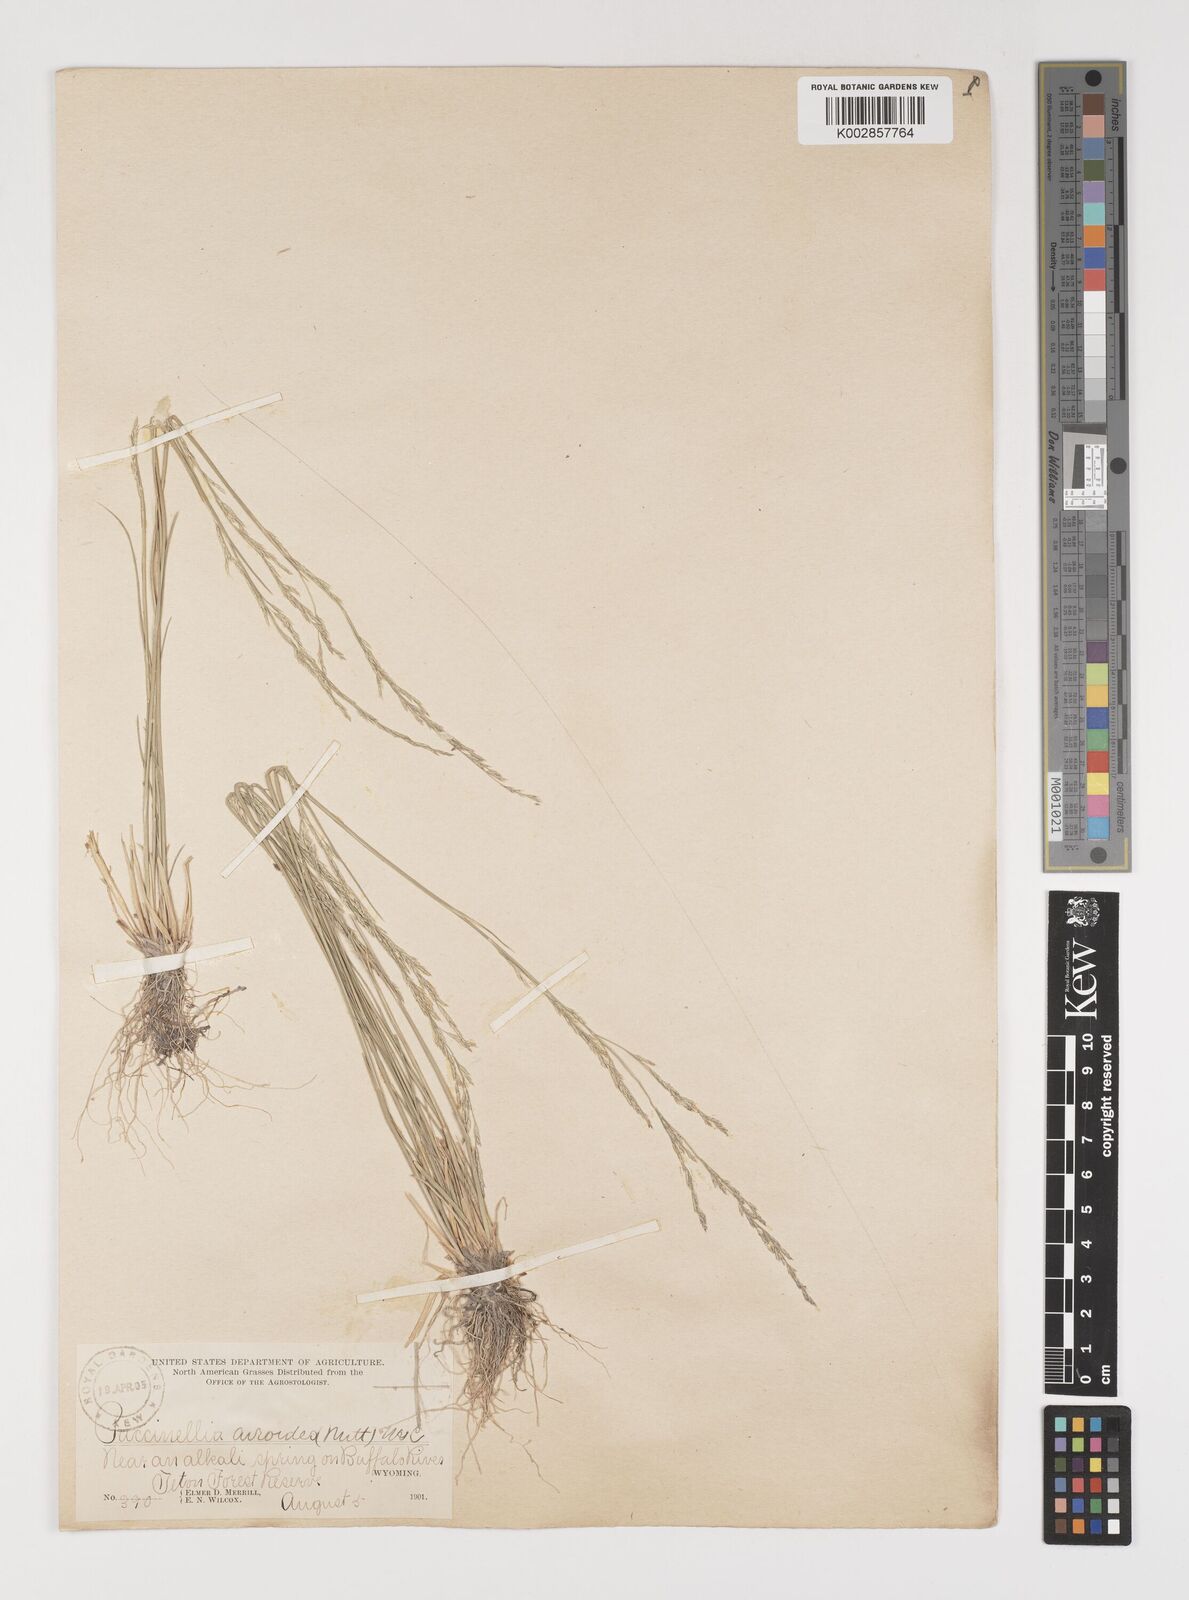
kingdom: Plantae
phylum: Tracheophyta
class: Liliopsida
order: Poales
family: Poaceae
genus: Puccinellia
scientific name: Puccinellia nuttalliana
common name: Nuttall's alkali grass
